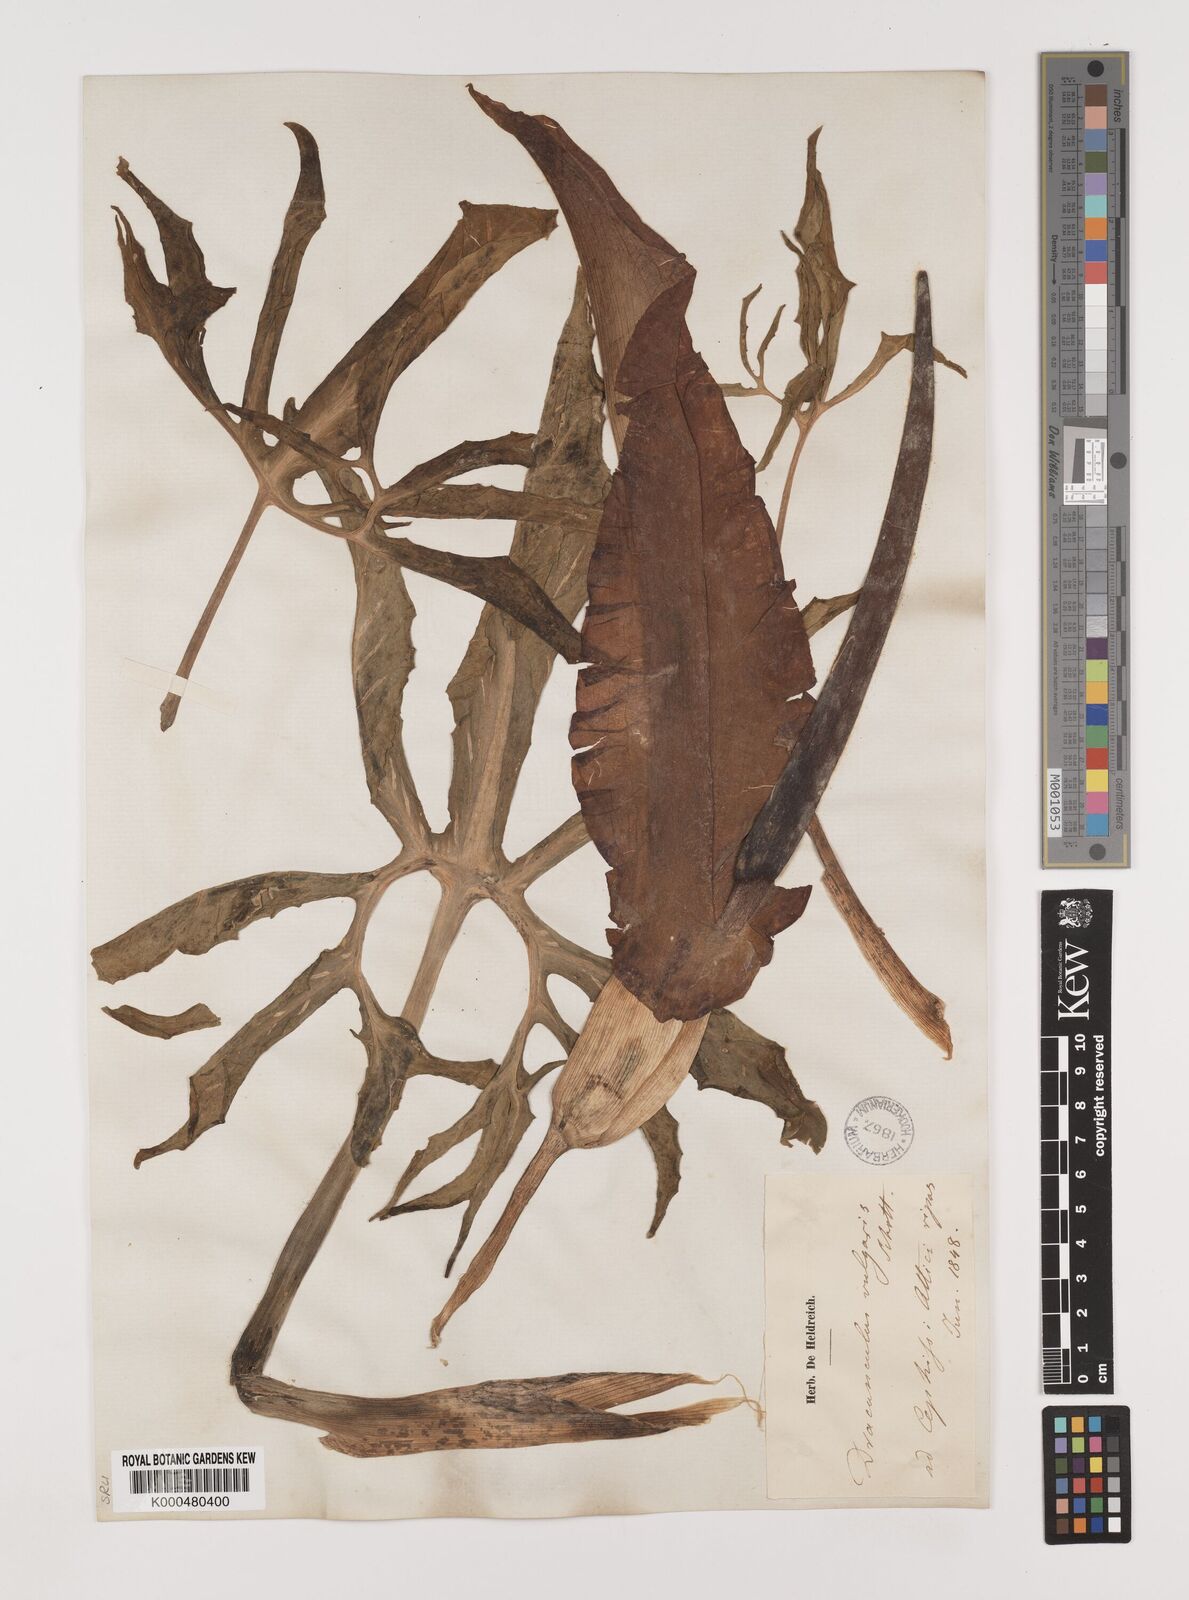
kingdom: Plantae
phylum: Tracheophyta
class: Liliopsida
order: Alismatales
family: Araceae
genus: Dracunculus
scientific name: Dracunculus vulgaris
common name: Dragon arum
